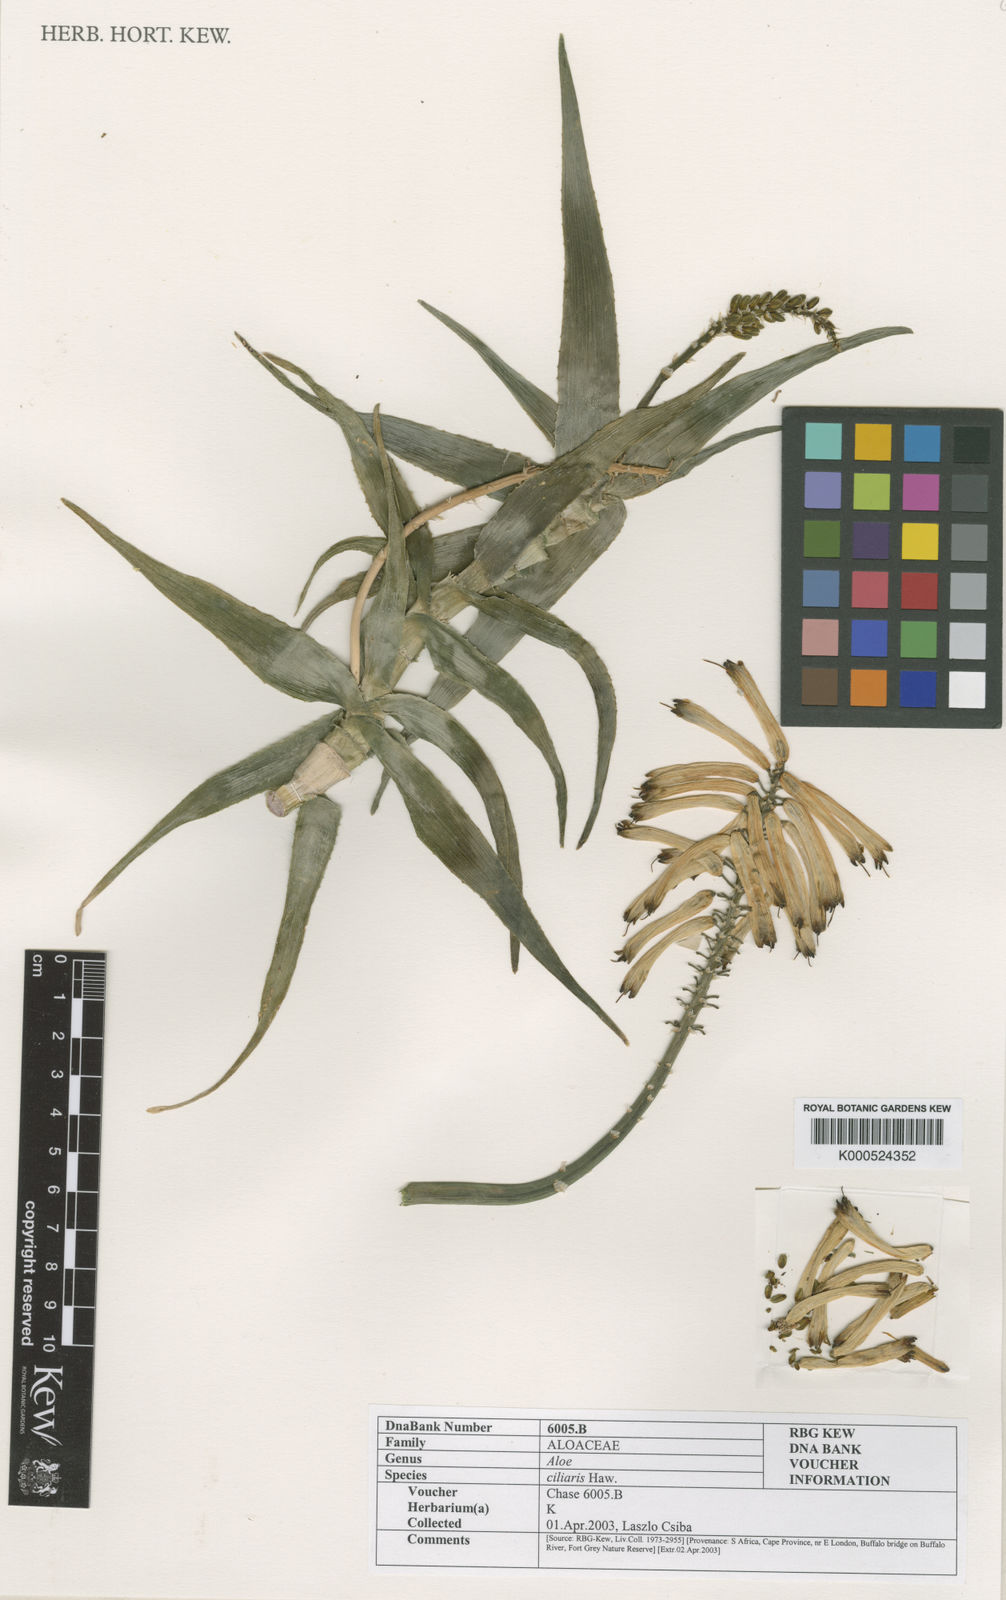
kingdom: Plantae
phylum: Tracheophyta
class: Liliopsida
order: Asparagales
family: Asphodelaceae
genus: Aloiampelos
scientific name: Aloiampelos ciliaris
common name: Climbing aloe
